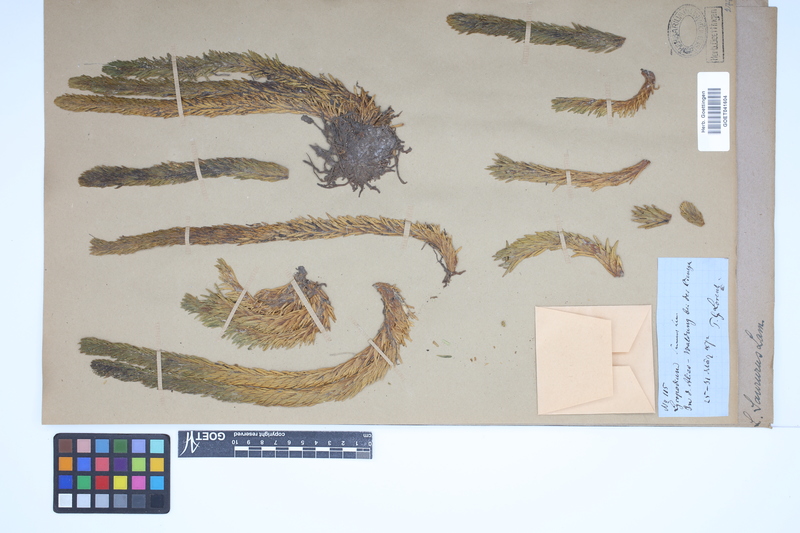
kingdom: Plantae
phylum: Tracheophyta
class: Lycopodiopsida
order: Lycopodiales
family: Lycopodiaceae
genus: Phlegmariurus
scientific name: Phlegmariurus saururus
